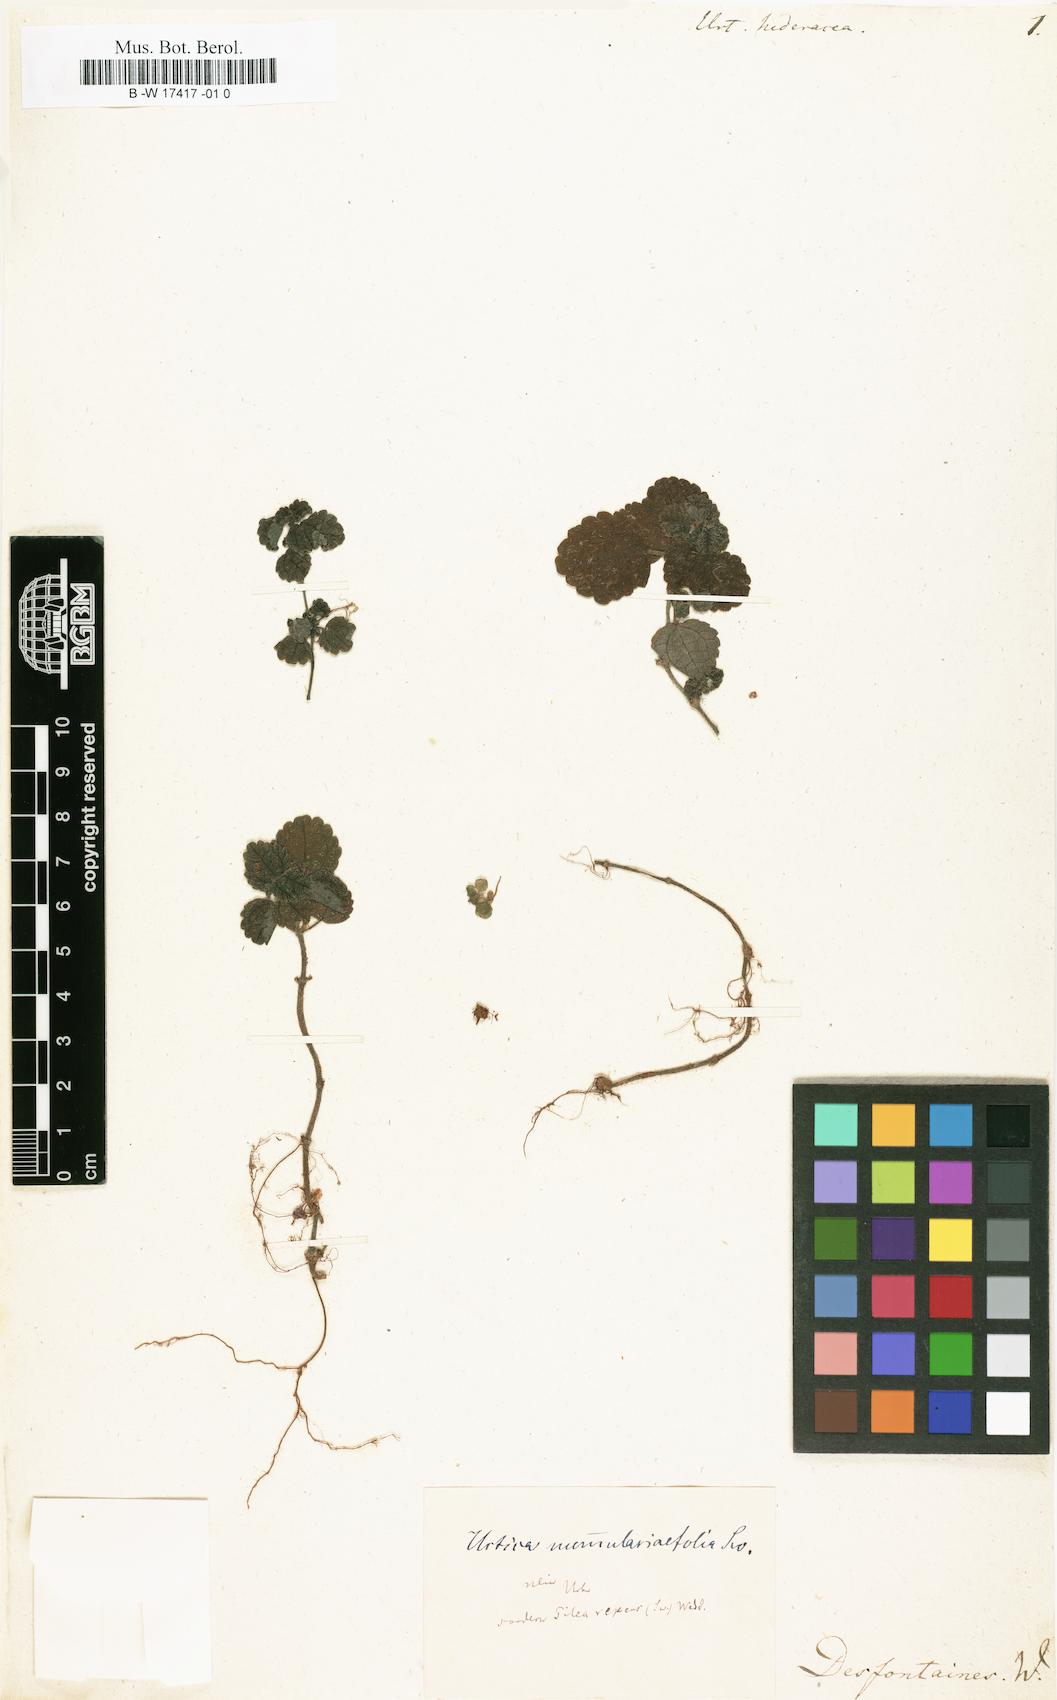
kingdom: Plantae
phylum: Tracheophyta
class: Magnoliopsida
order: Rosales
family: Urticaceae
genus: Pilea
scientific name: Pilea inaequalis
